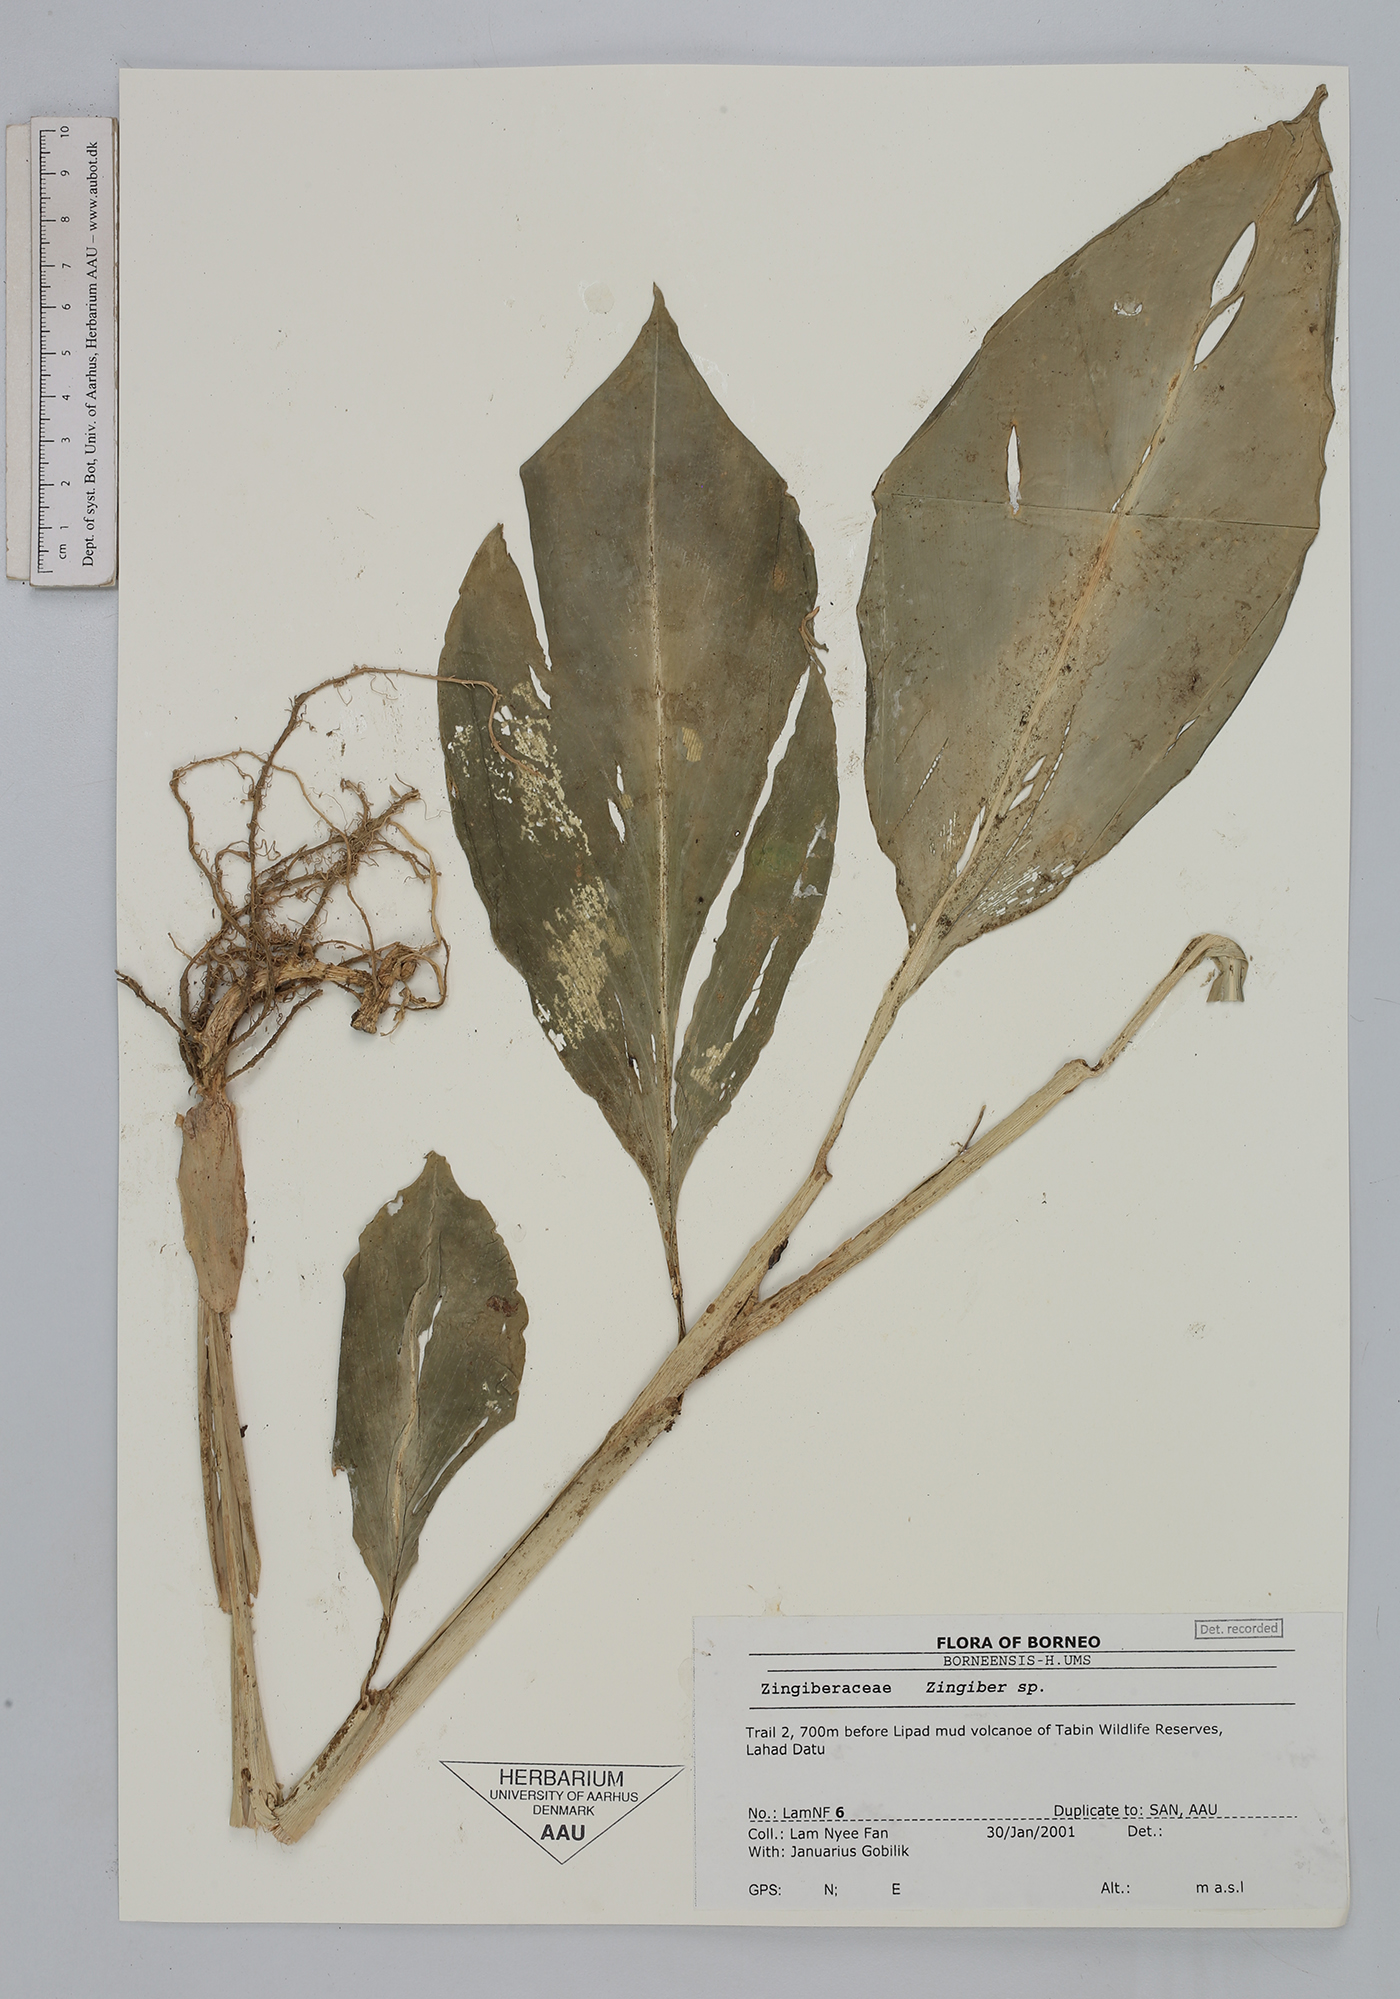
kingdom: Plantae
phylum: Tracheophyta
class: Liliopsida
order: Zingiberales
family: Zingiberaceae
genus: Zingiber
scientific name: Zingiber
